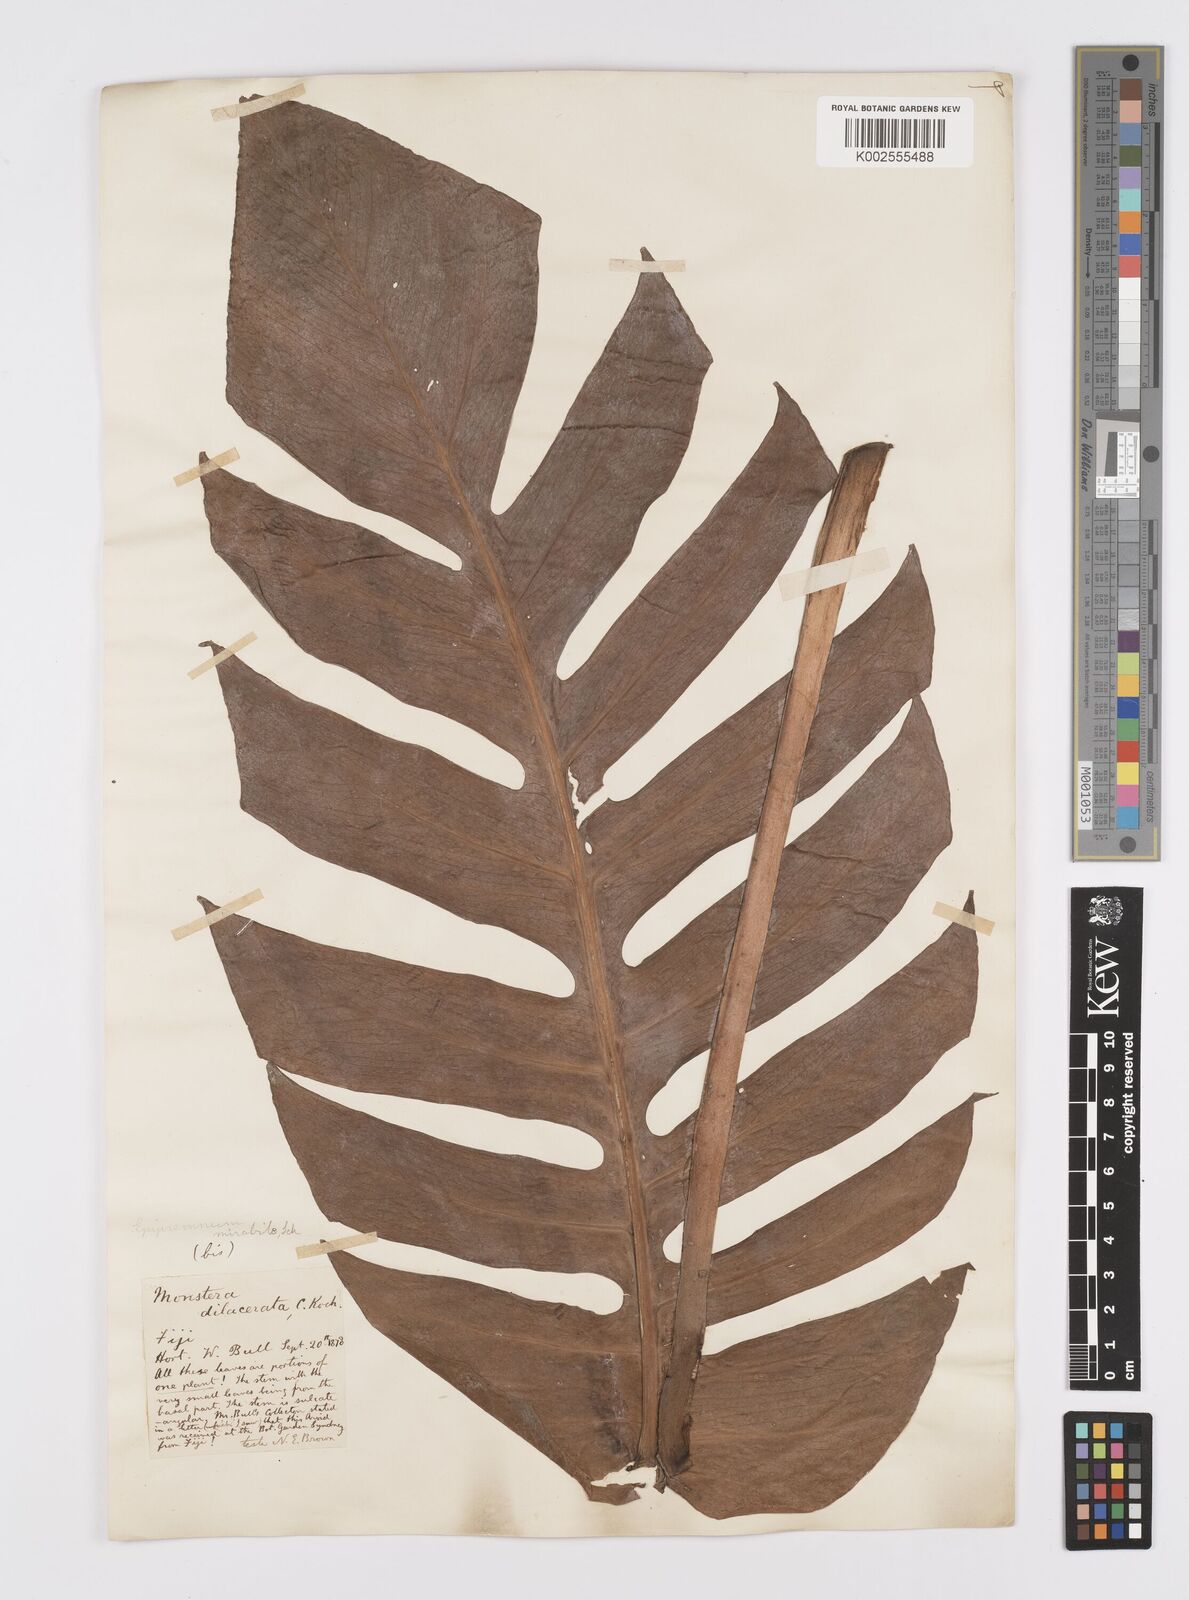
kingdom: Plantae
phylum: Tracheophyta
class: Liliopsida
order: Alismatales
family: Araceae
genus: Epipremnum
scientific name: Epipremnum pinnatum
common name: Centipede tongavine
